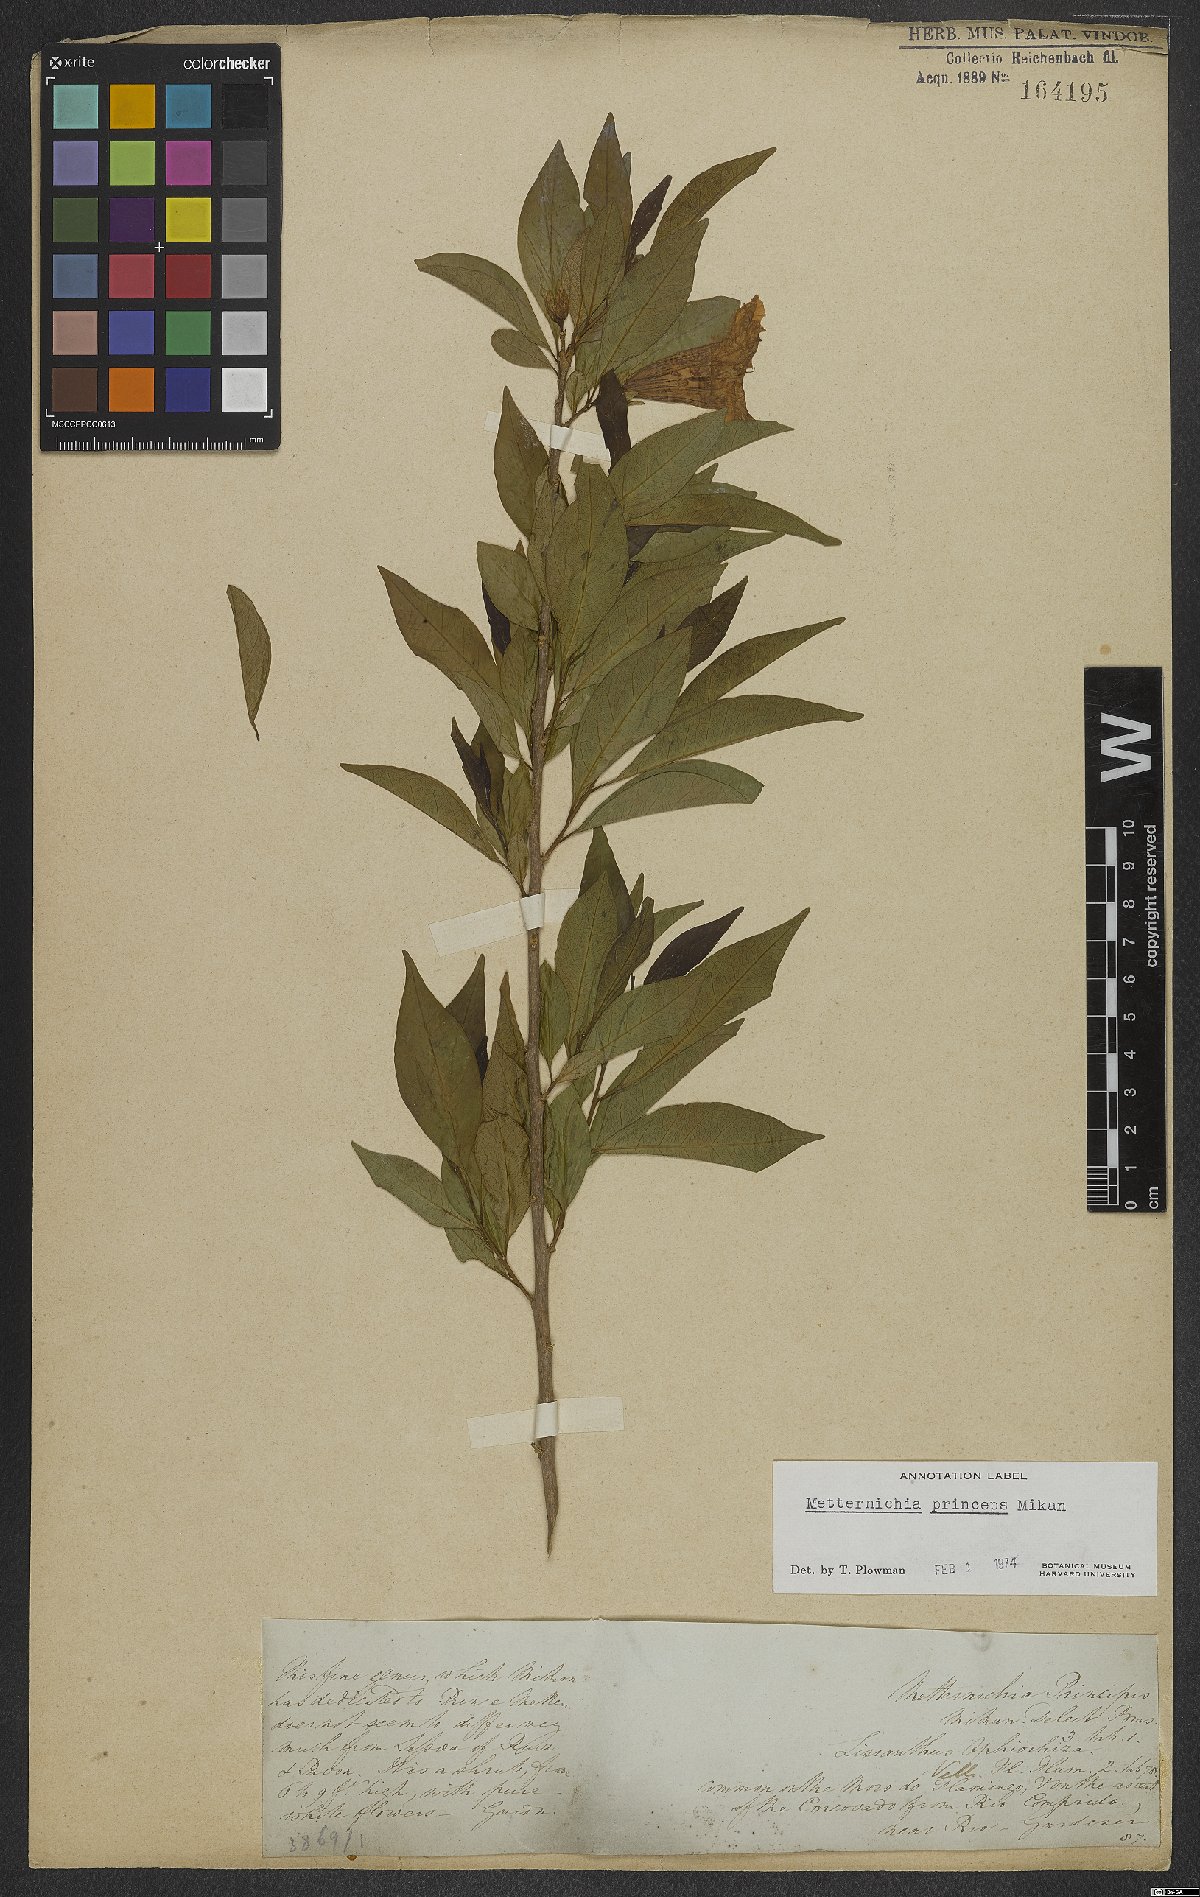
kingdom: Plantae
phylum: Tracheophyta
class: Magnoliopsida
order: Solanales
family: Solanaceae
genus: Metternichia
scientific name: Metternichia principis
